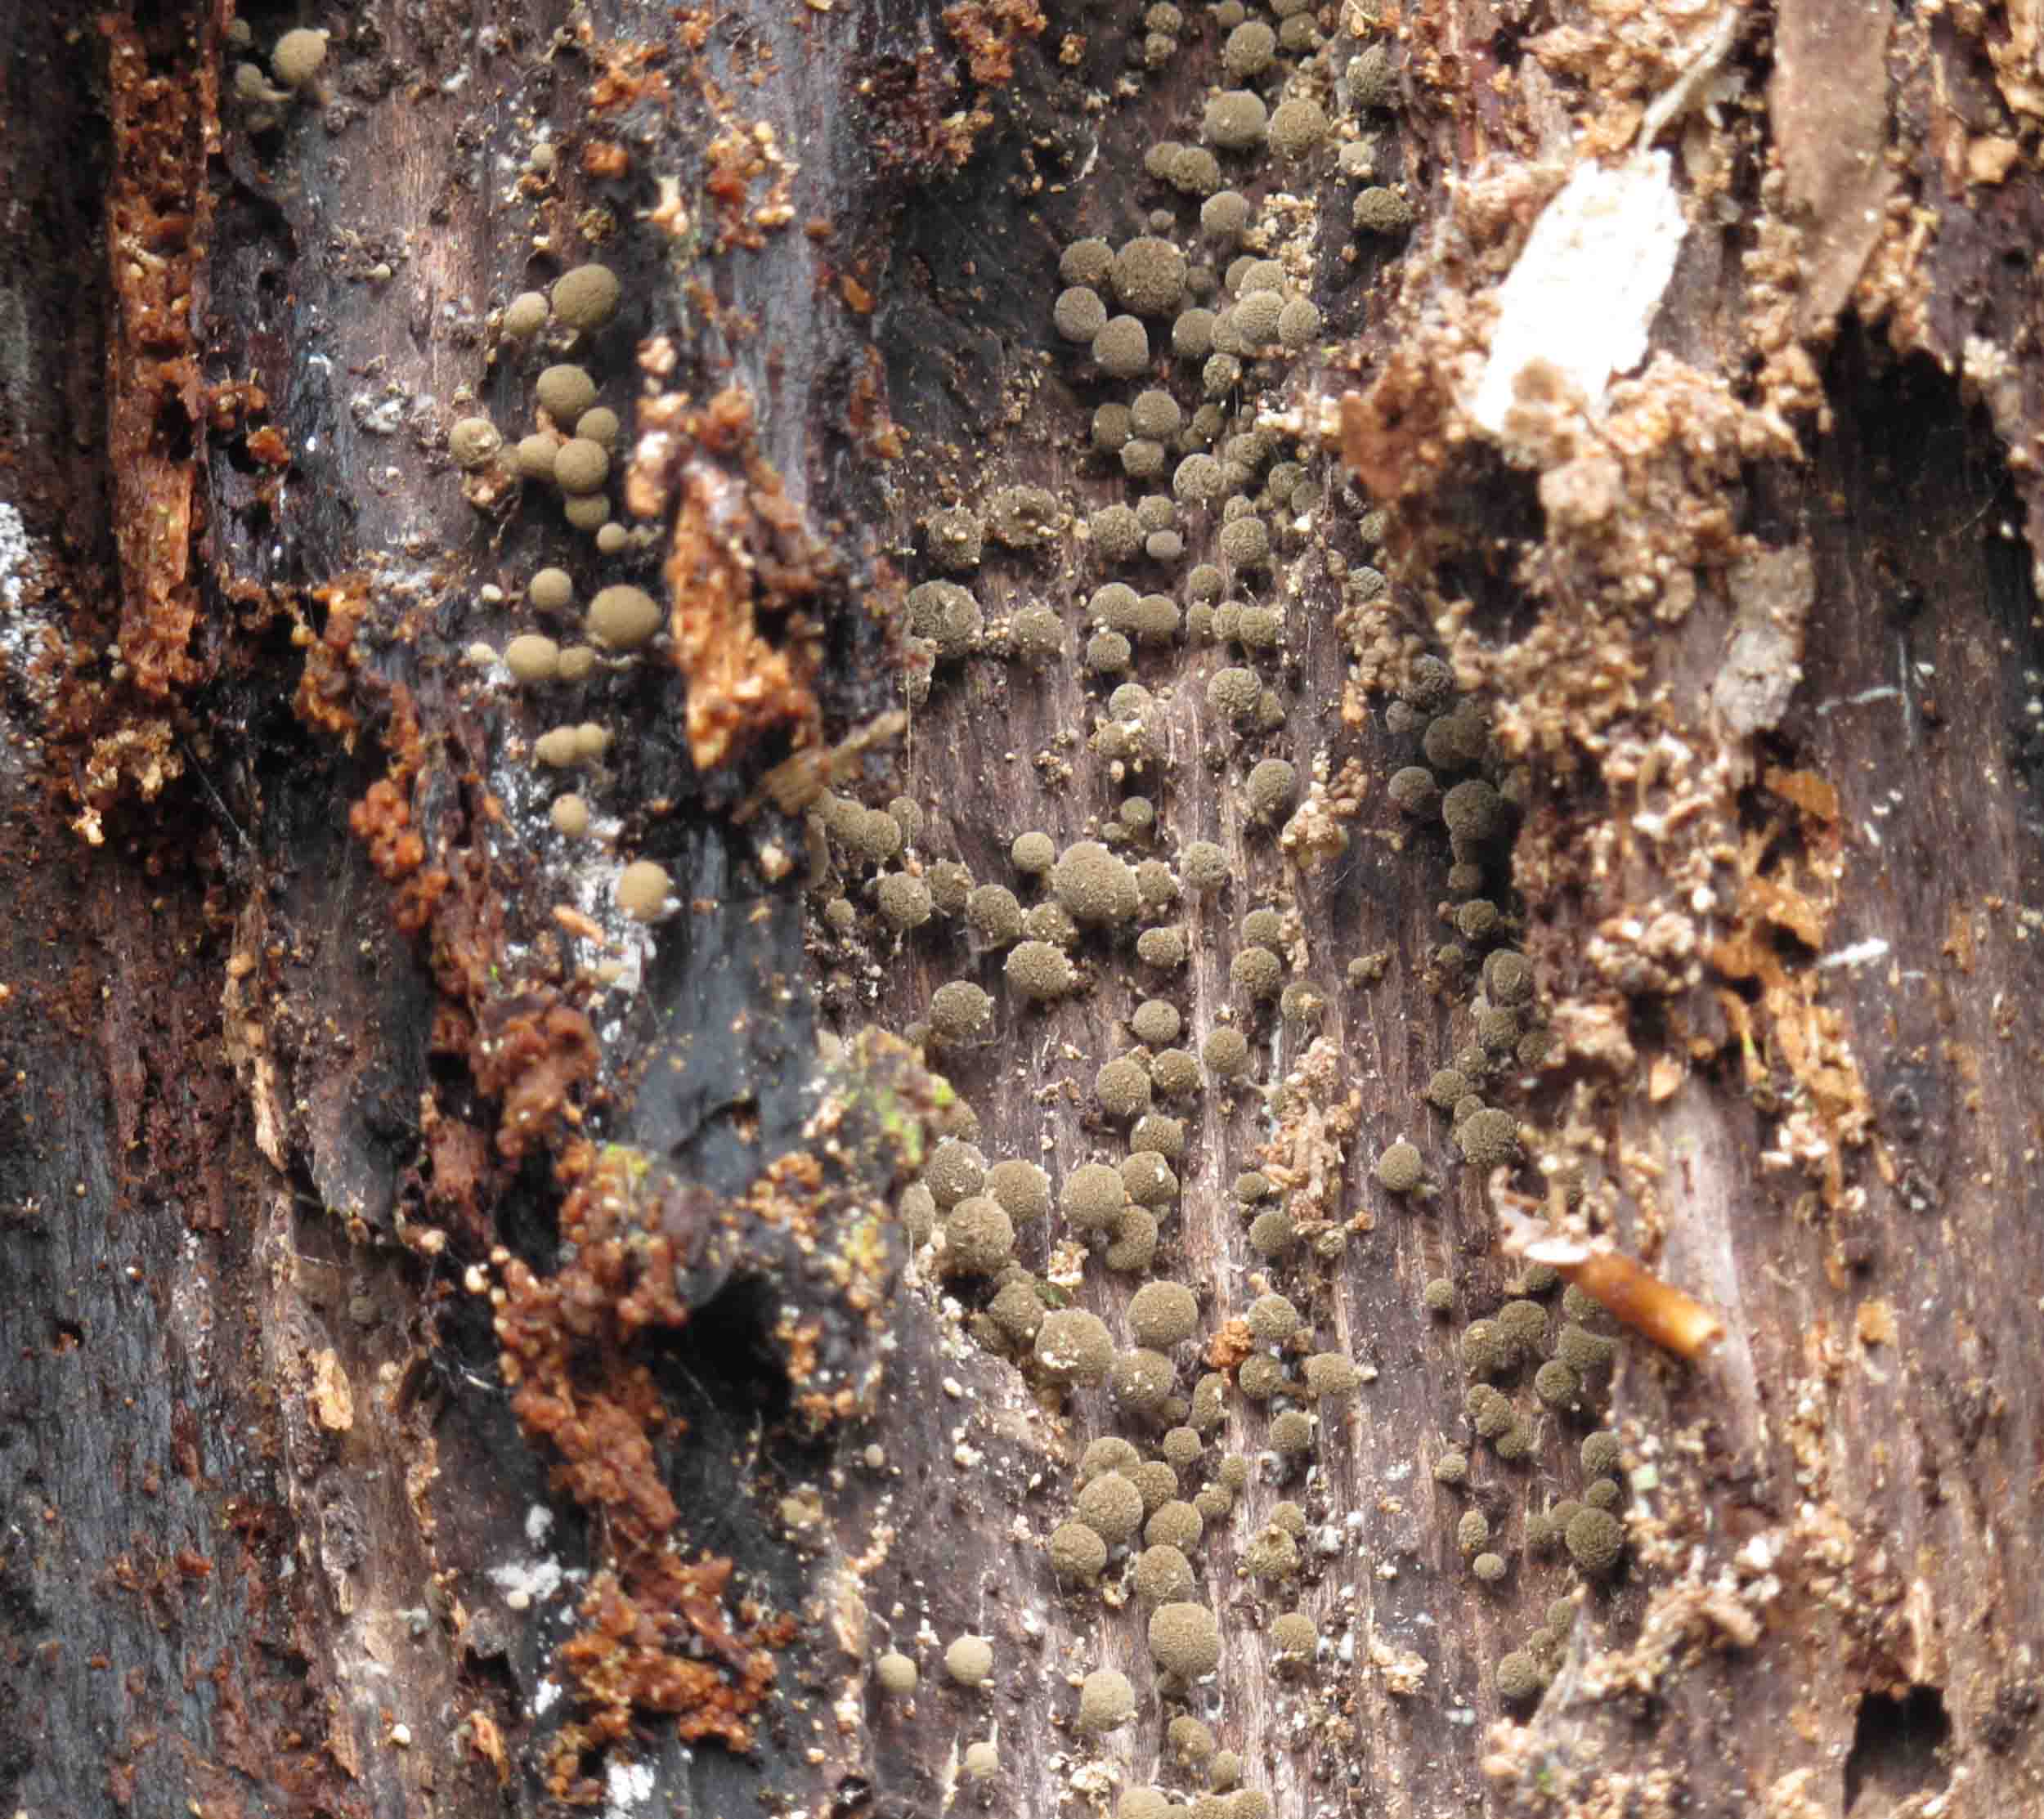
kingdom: Fungi
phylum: Basidiomycota
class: Atractiellomycetes
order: Atractiellales
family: Phleogenaceae
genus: Phleogena
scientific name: Phleogena faginea
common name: pudderkølle
